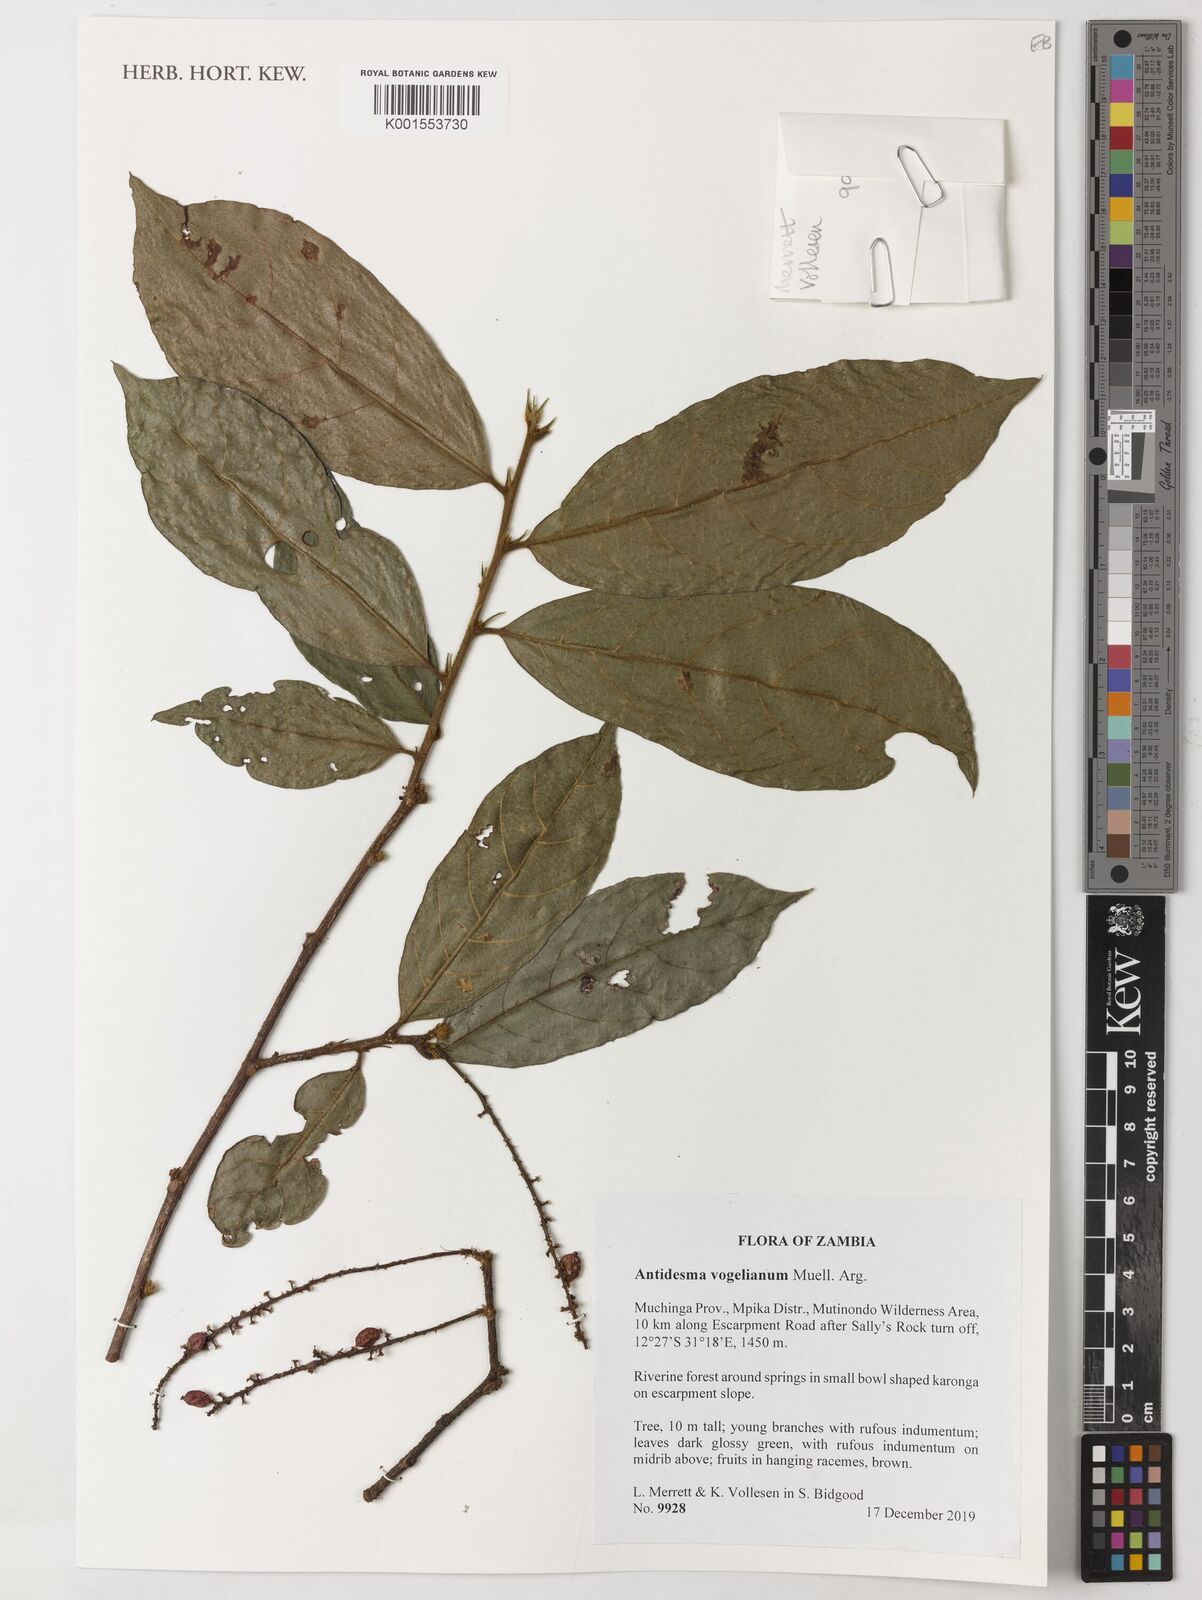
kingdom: Plantae
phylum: Tracheophyta
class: Magnoliopsida
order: Malpighiales
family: Phyllanthaceae
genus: Antidesma
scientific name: Antidesma vogelianum
